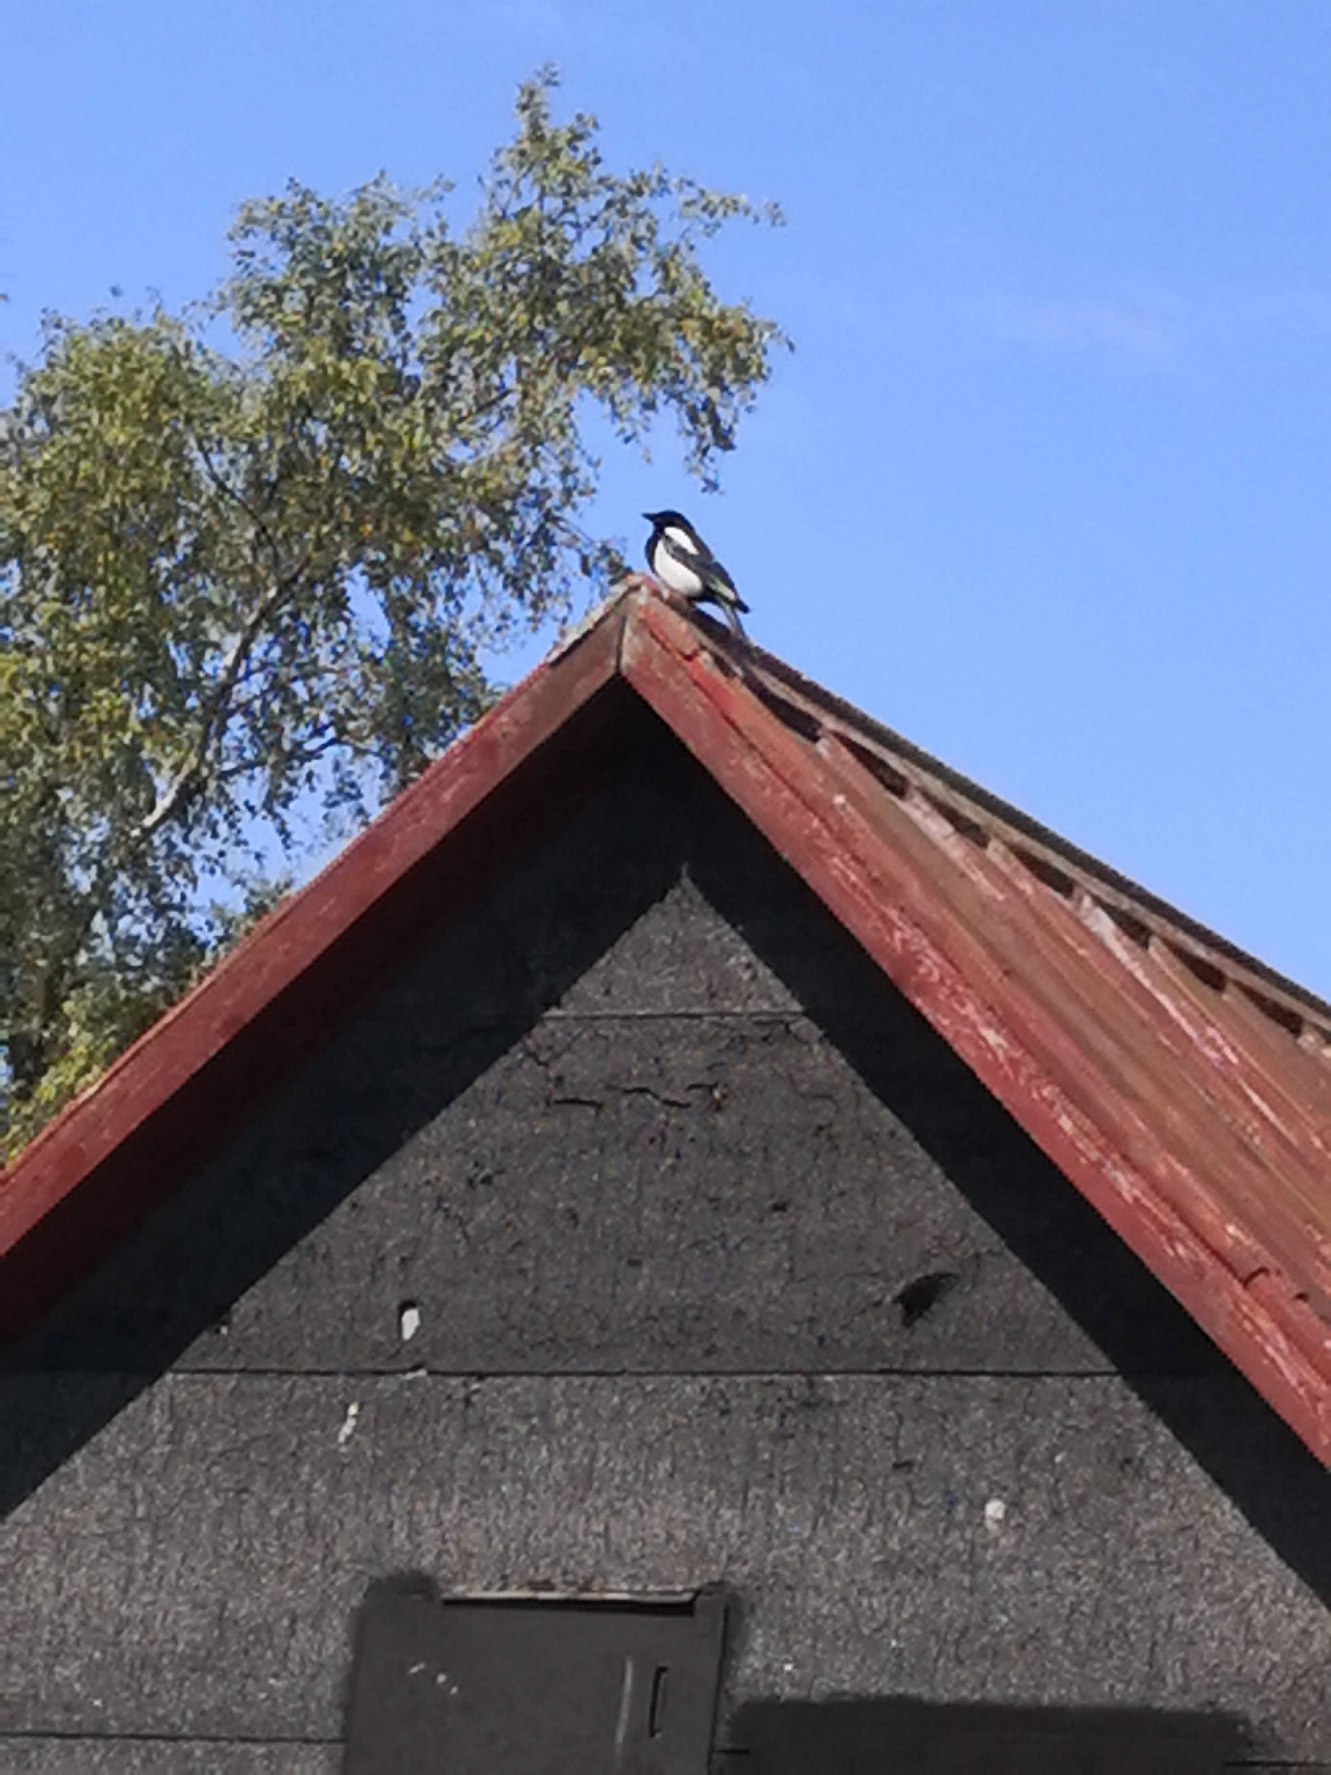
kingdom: Animalia
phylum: Chordata
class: Aves
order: Passeriformes
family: Corvidae
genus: Pica
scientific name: Pica pica
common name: Husskade
